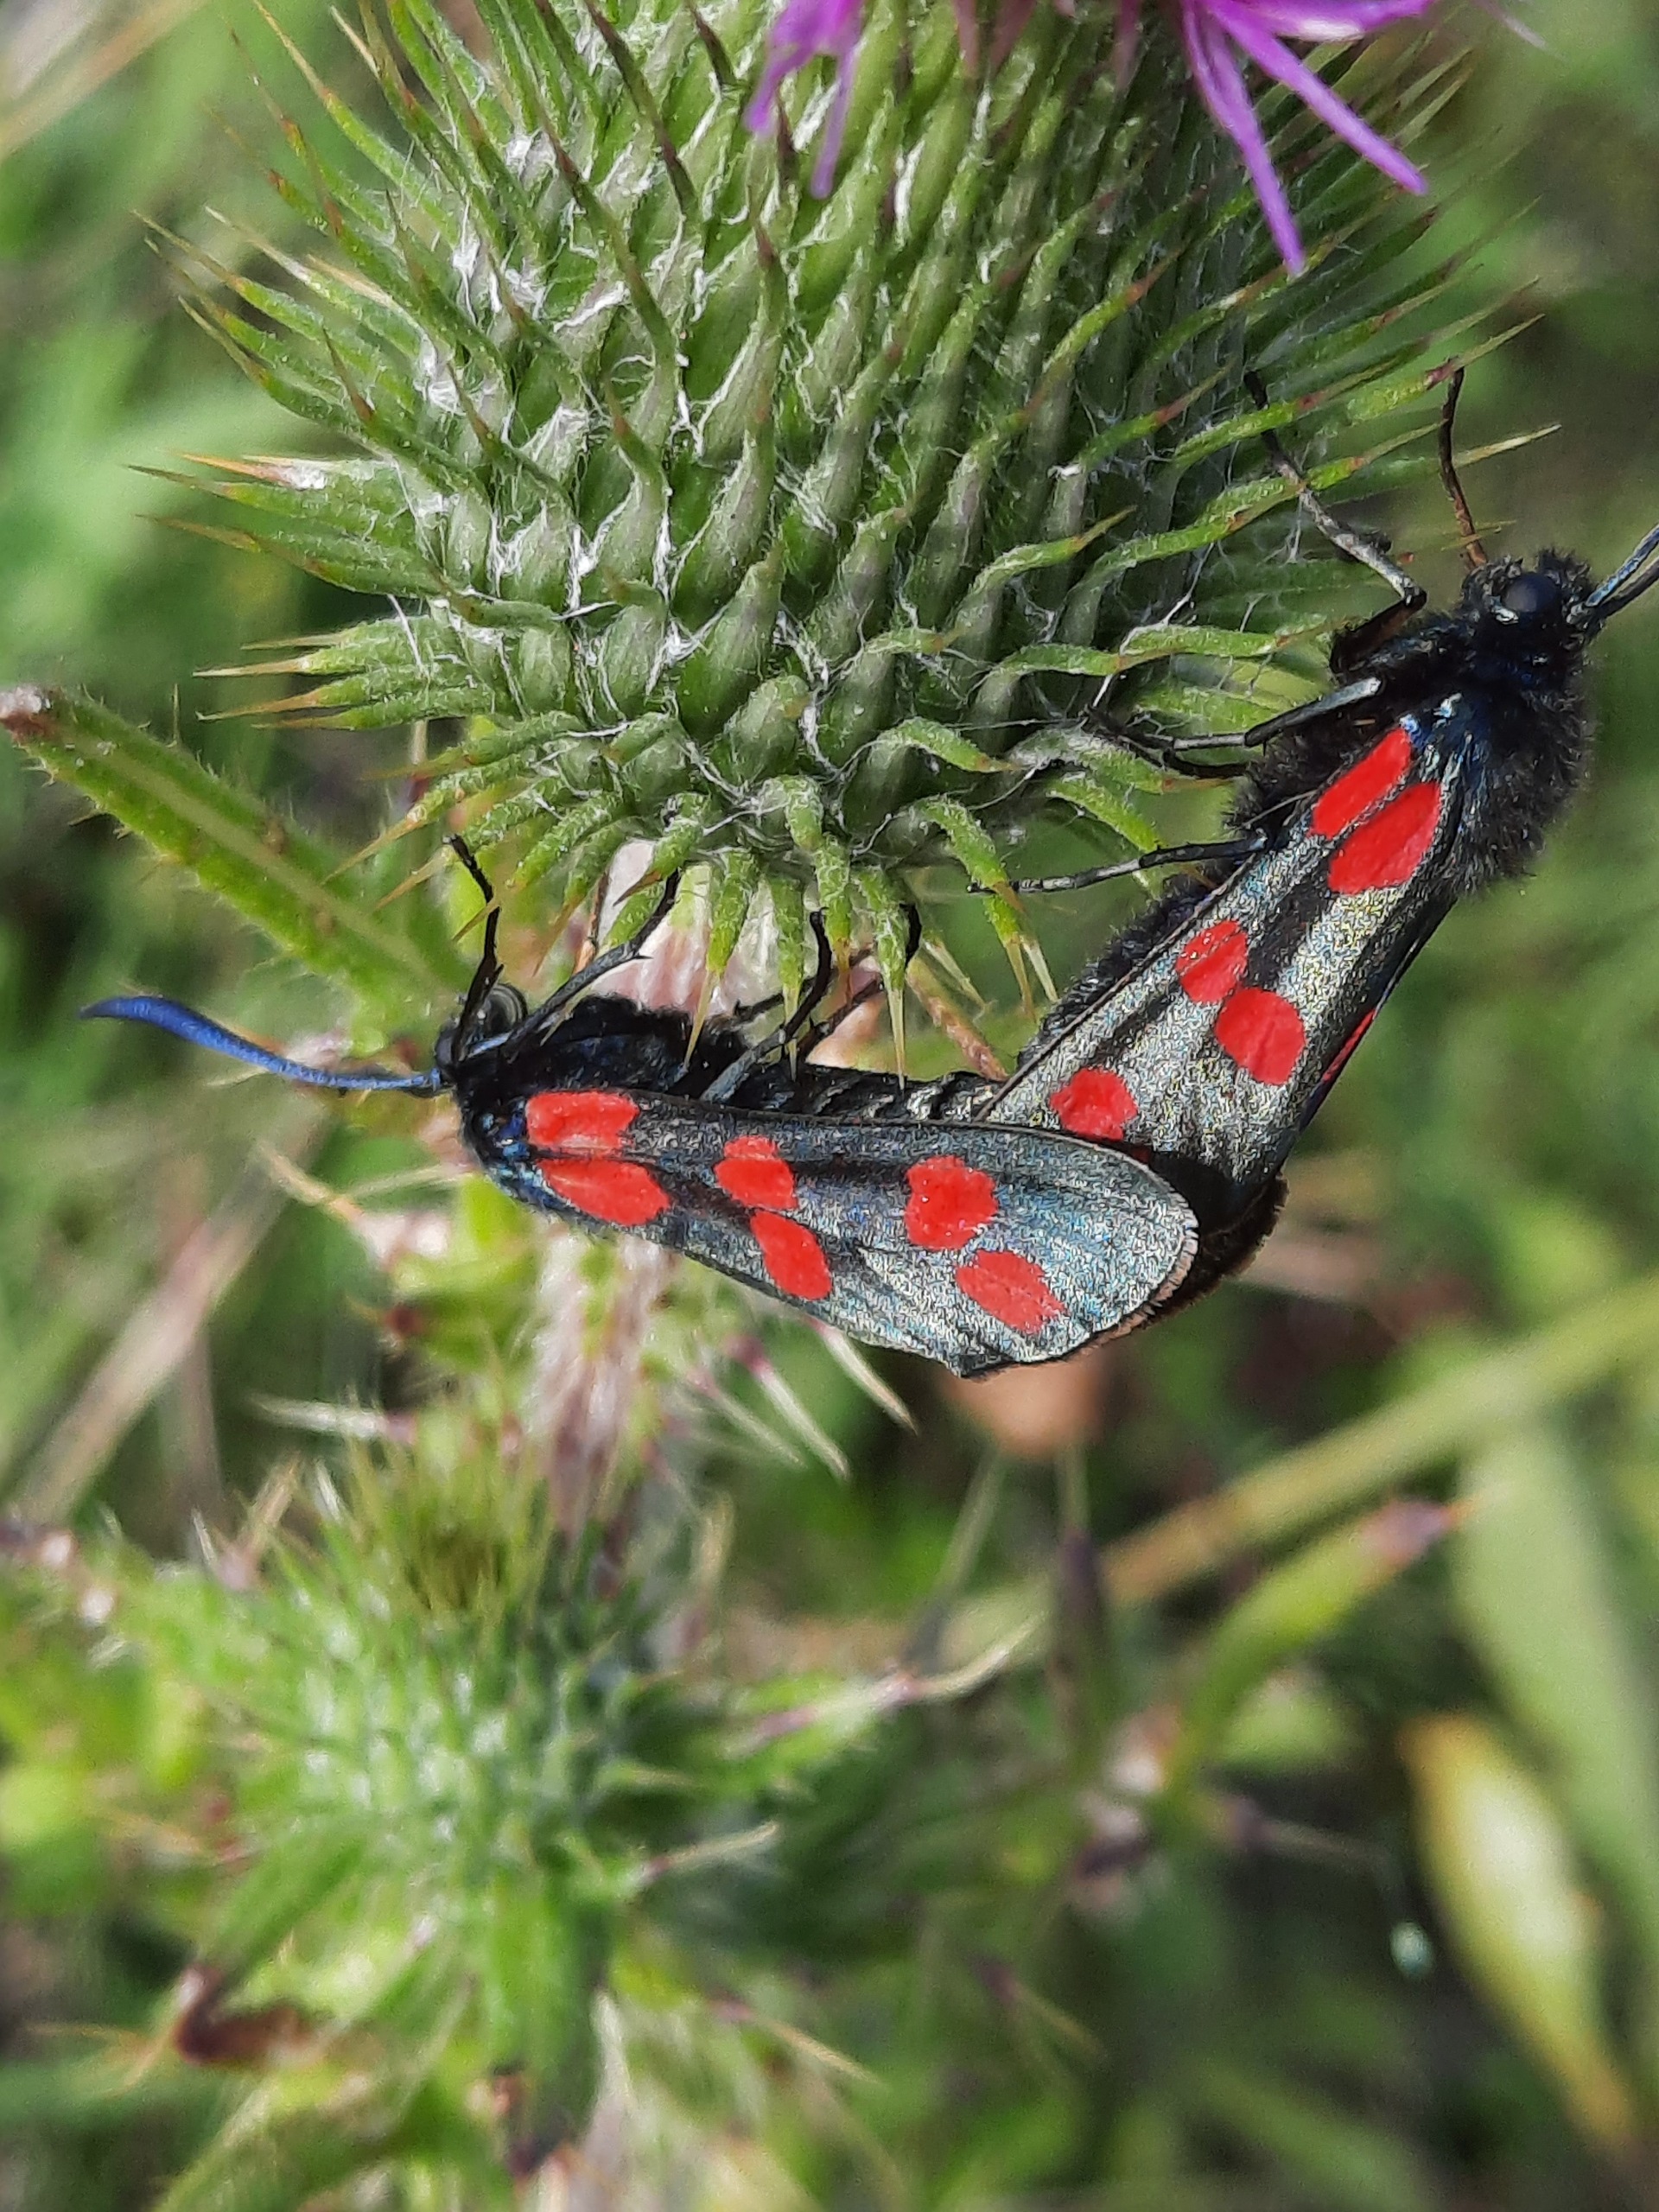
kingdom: Animalia
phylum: Arthropoda
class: Insecta
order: Lepidoptera
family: Zygaenidae
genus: Zygaena
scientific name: Zygaena filipendulae
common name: Seksplettet køllesværmer
